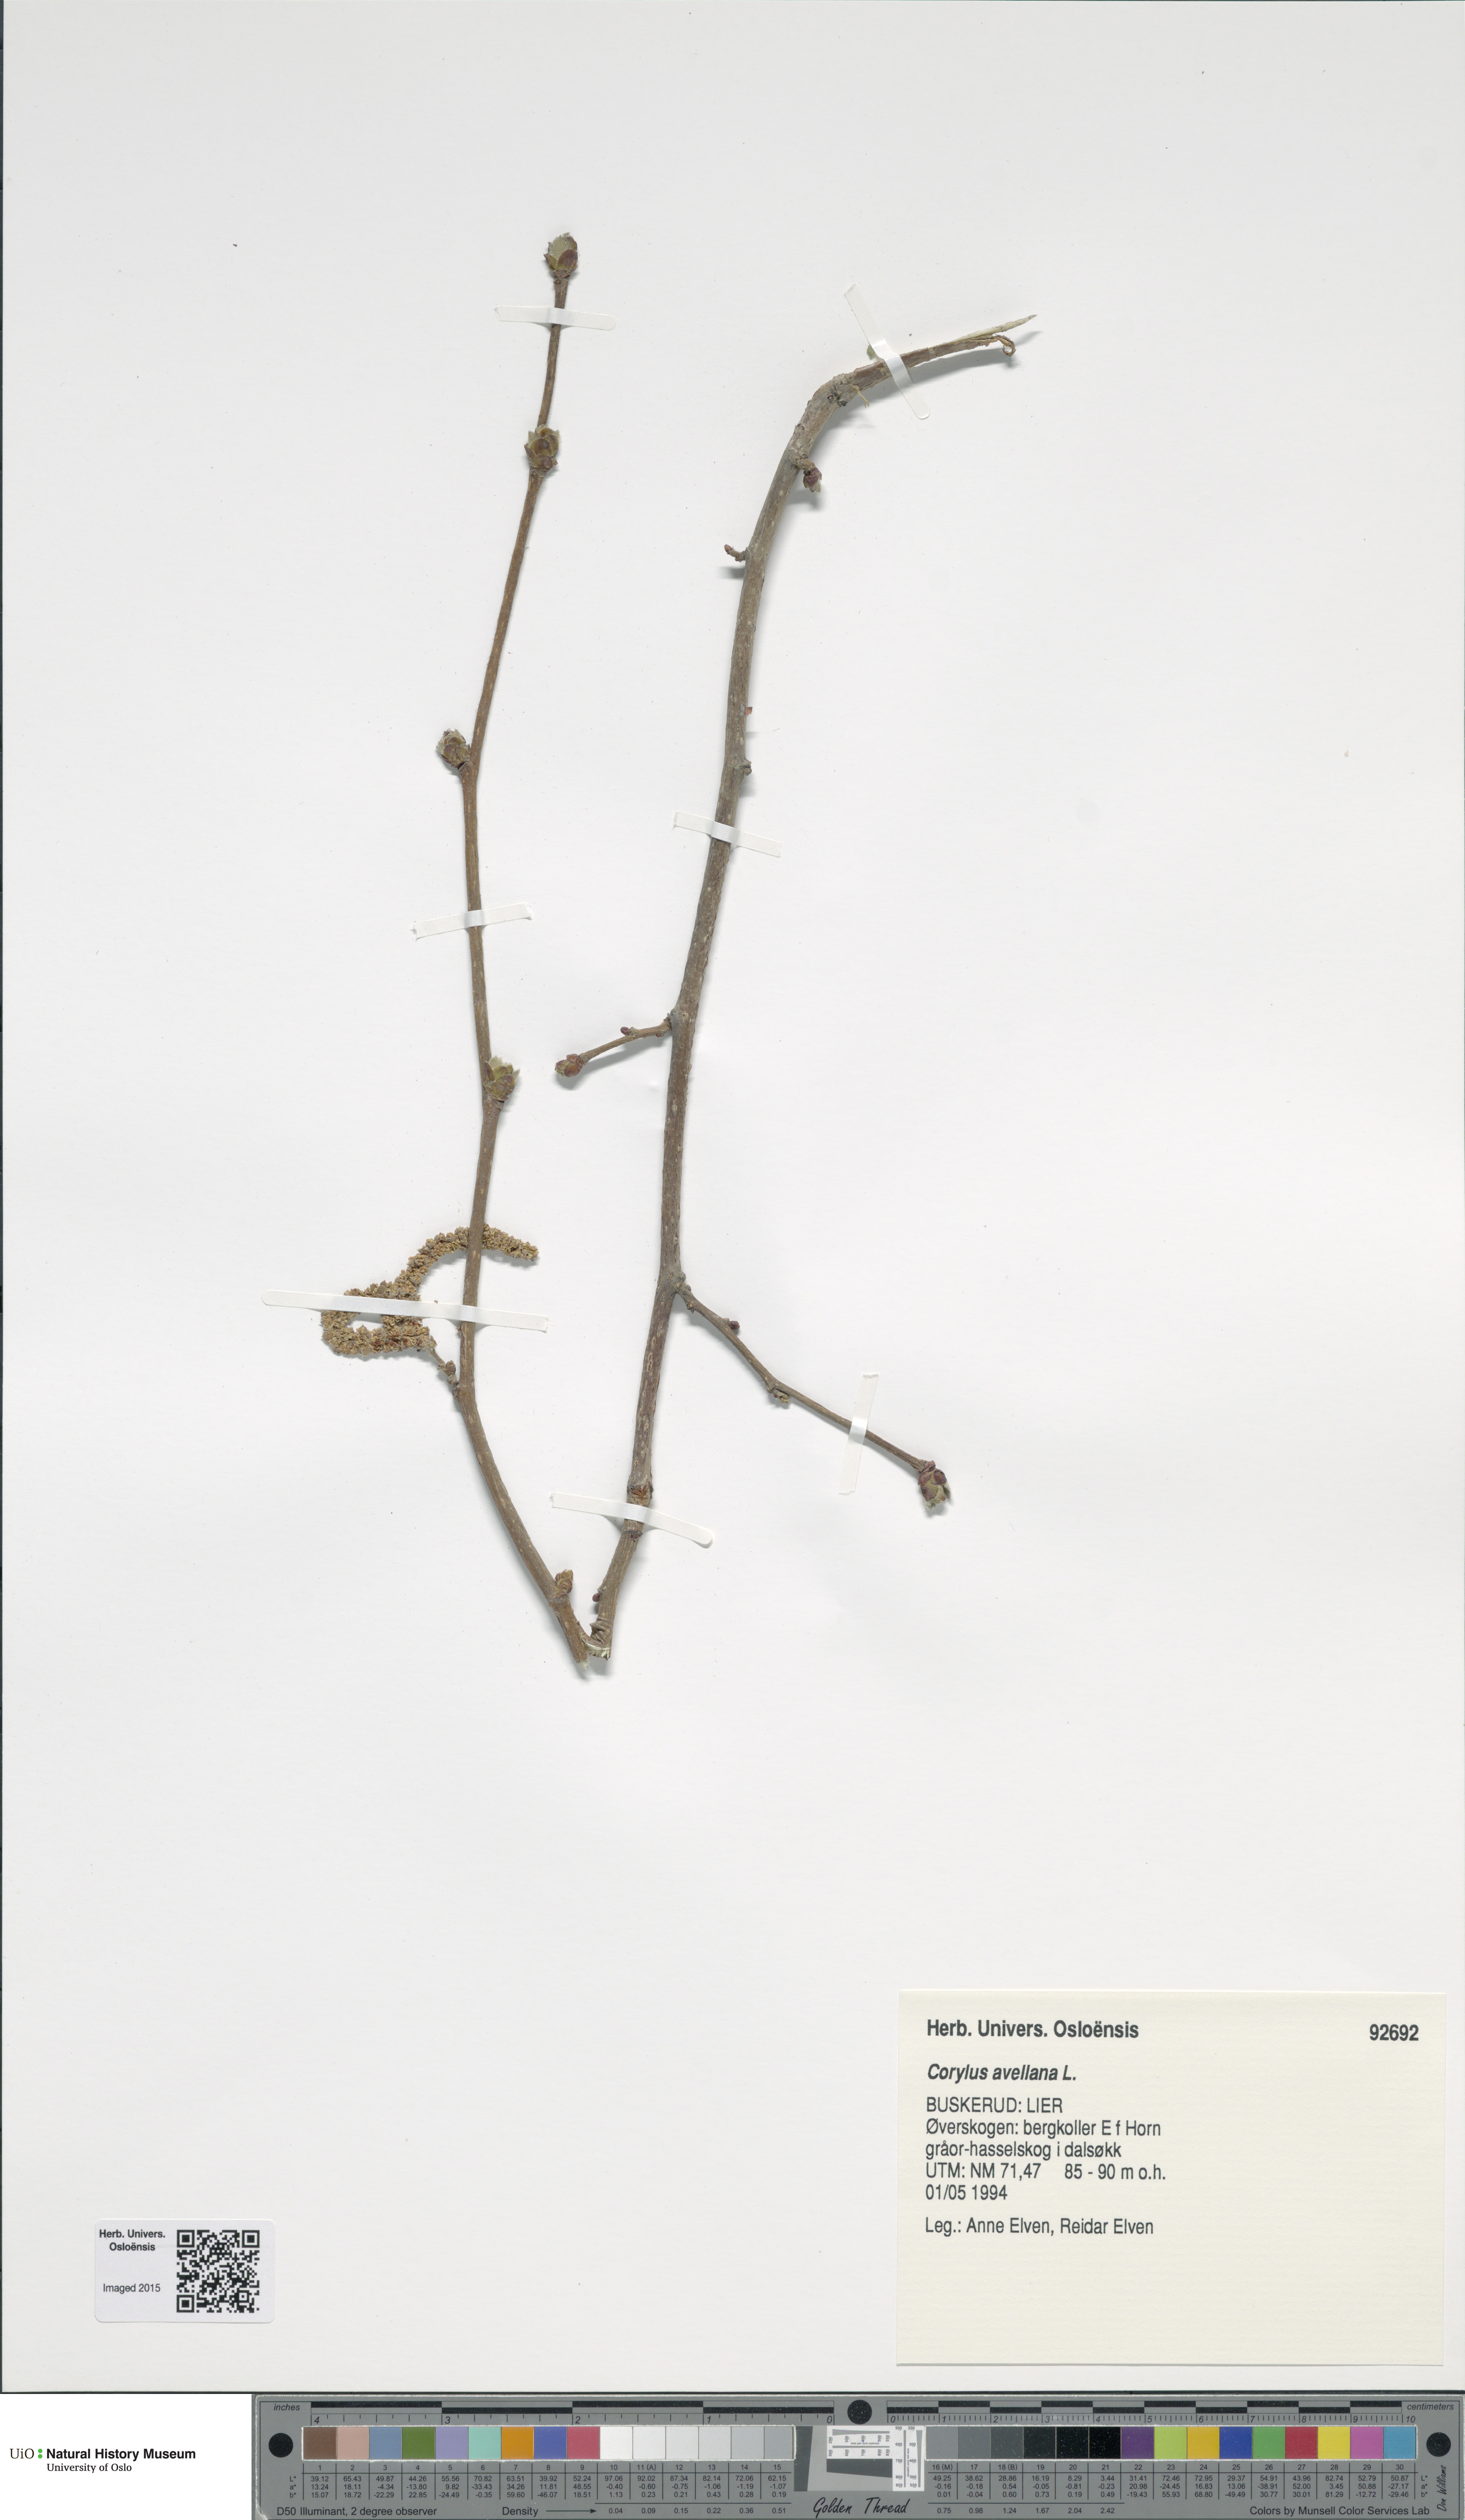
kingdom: Plantae
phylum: Tracheophyta
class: Magnoliopsida
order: Fagales
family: Betulaceae
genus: Corylus
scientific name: Corylus avellana
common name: European hazel
